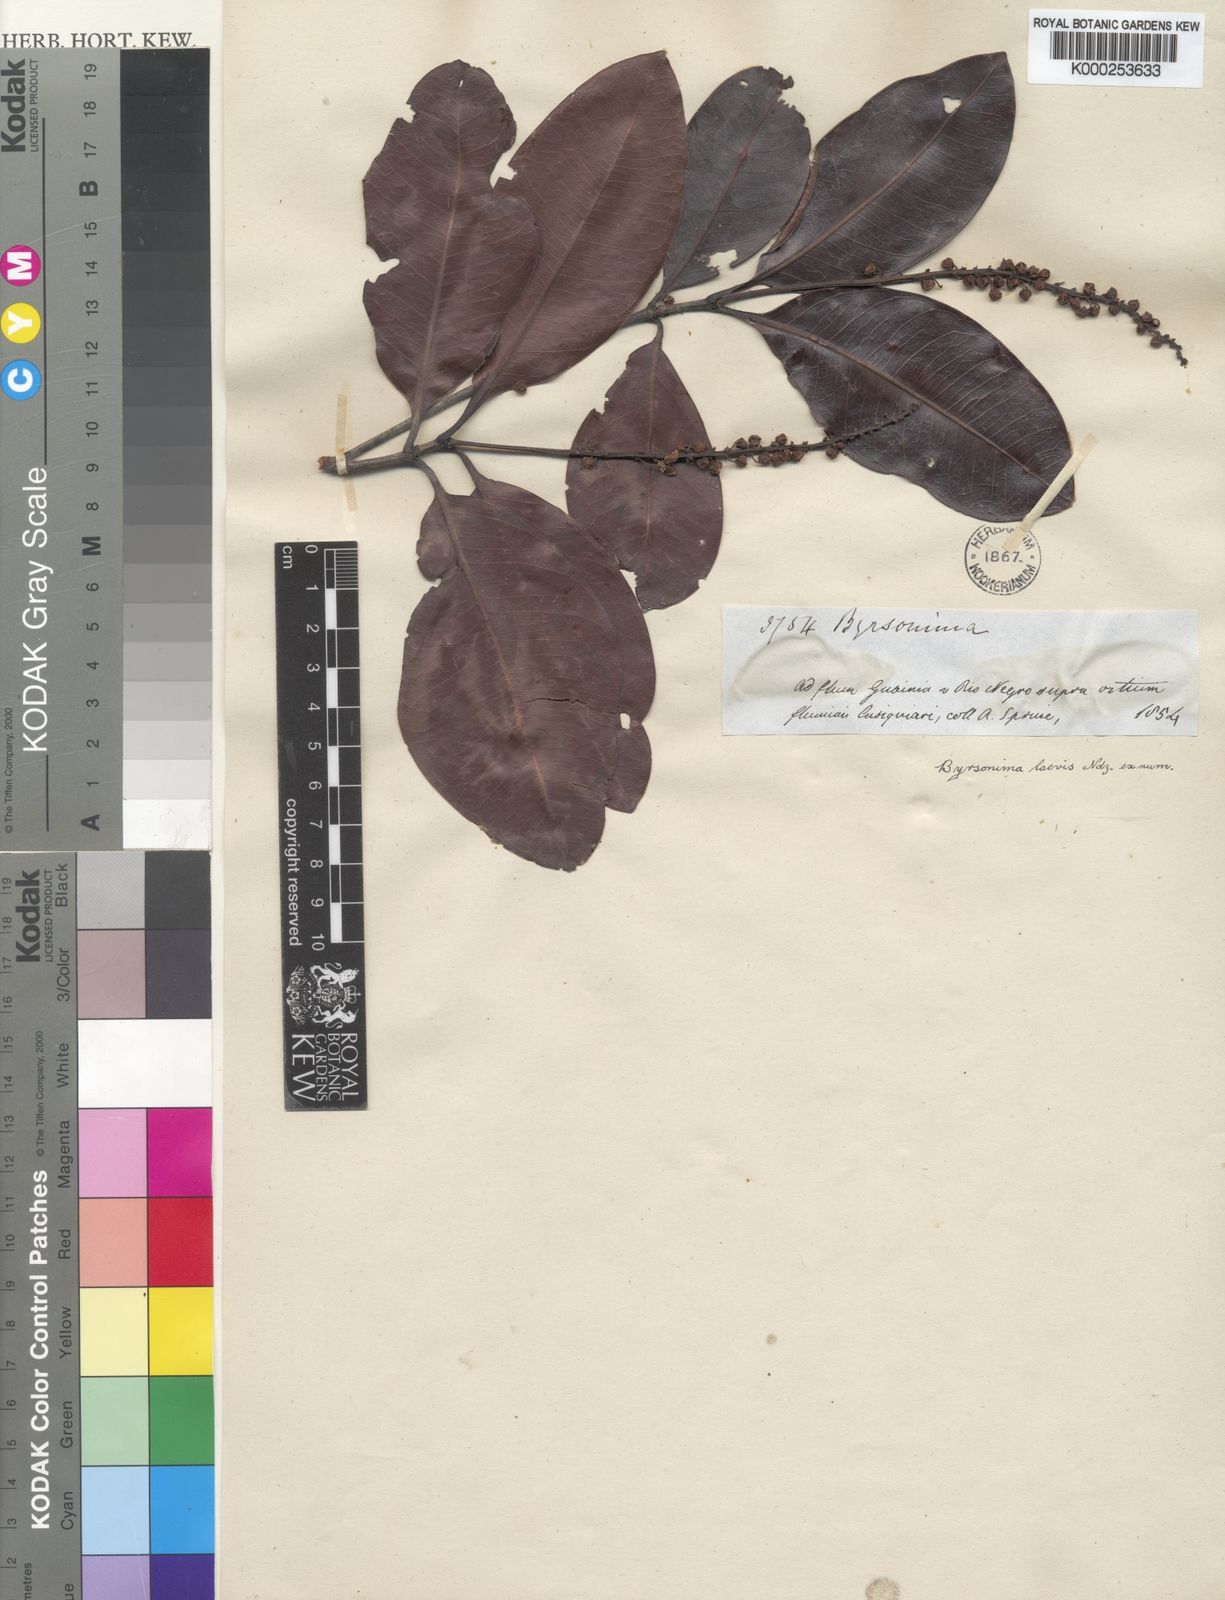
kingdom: Plantae
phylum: Tracheophyta
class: Magnoliopsida
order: Malpighiales
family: Malpighiaceae
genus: Byrsonima
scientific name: Byrsonima laevis
